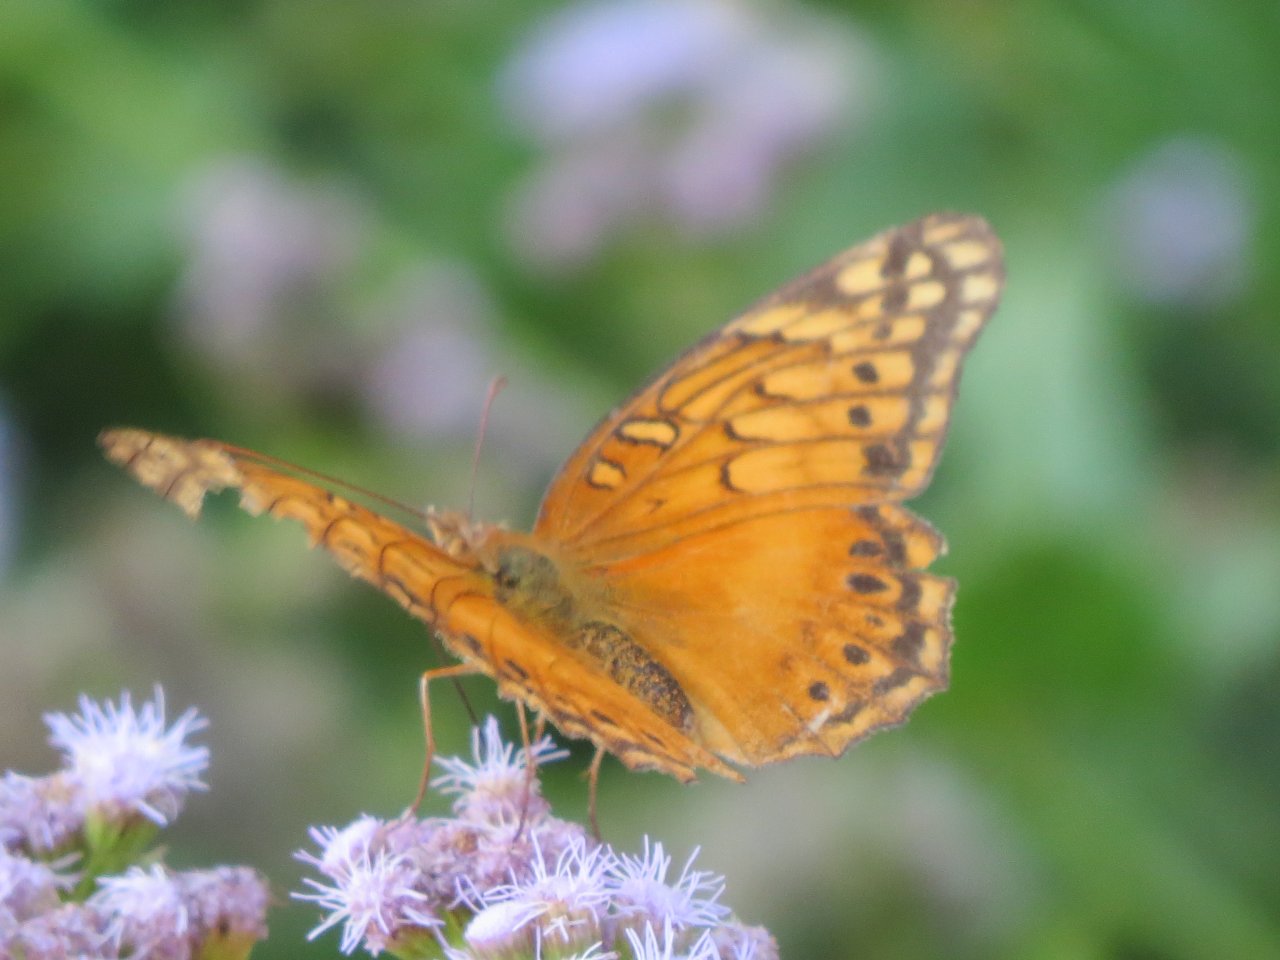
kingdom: Animalia
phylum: Arthropoda
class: Insecta
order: Lepidoptera
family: Nymphalidae
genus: Euptoieta
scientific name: Euptoieta hegesia
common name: Mexican Fritillary
